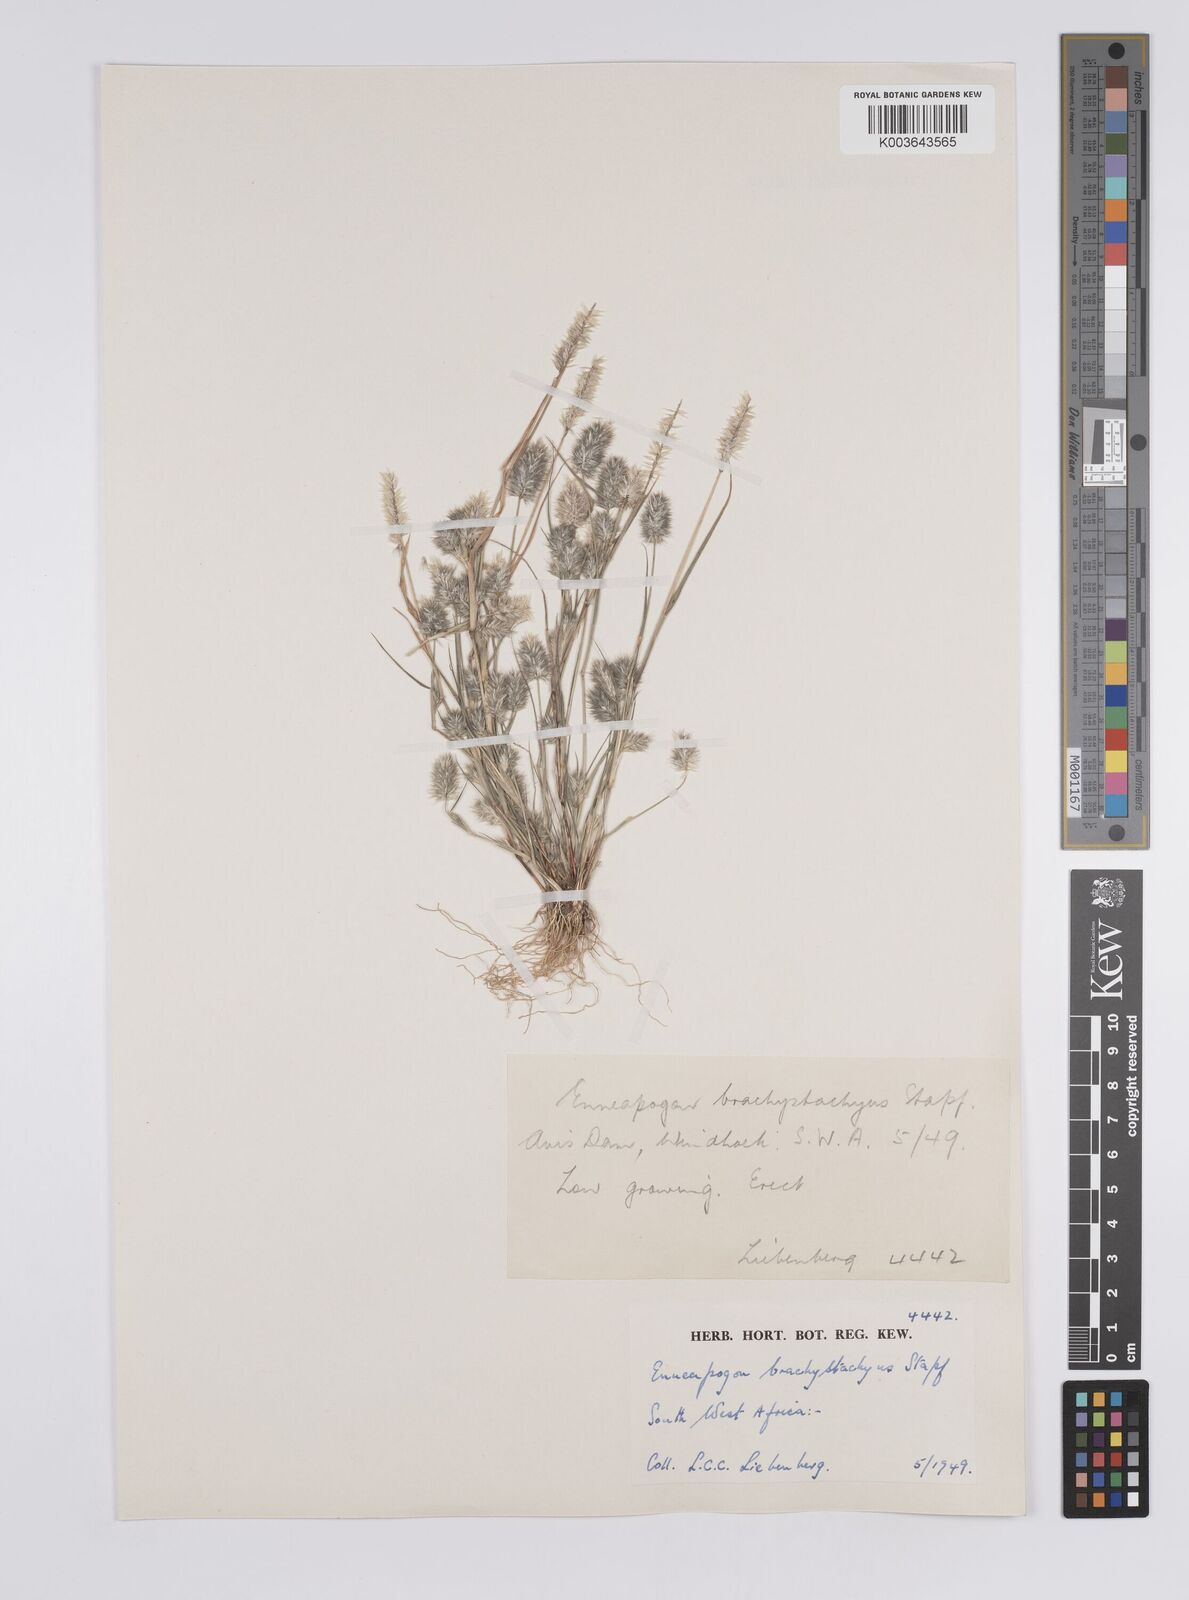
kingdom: Plantae
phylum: Tracheophyta
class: Liliopsida
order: Poales
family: Poaceae
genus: Enneapogon
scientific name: Enneapogon desvauxii
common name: Feather pappus grass
